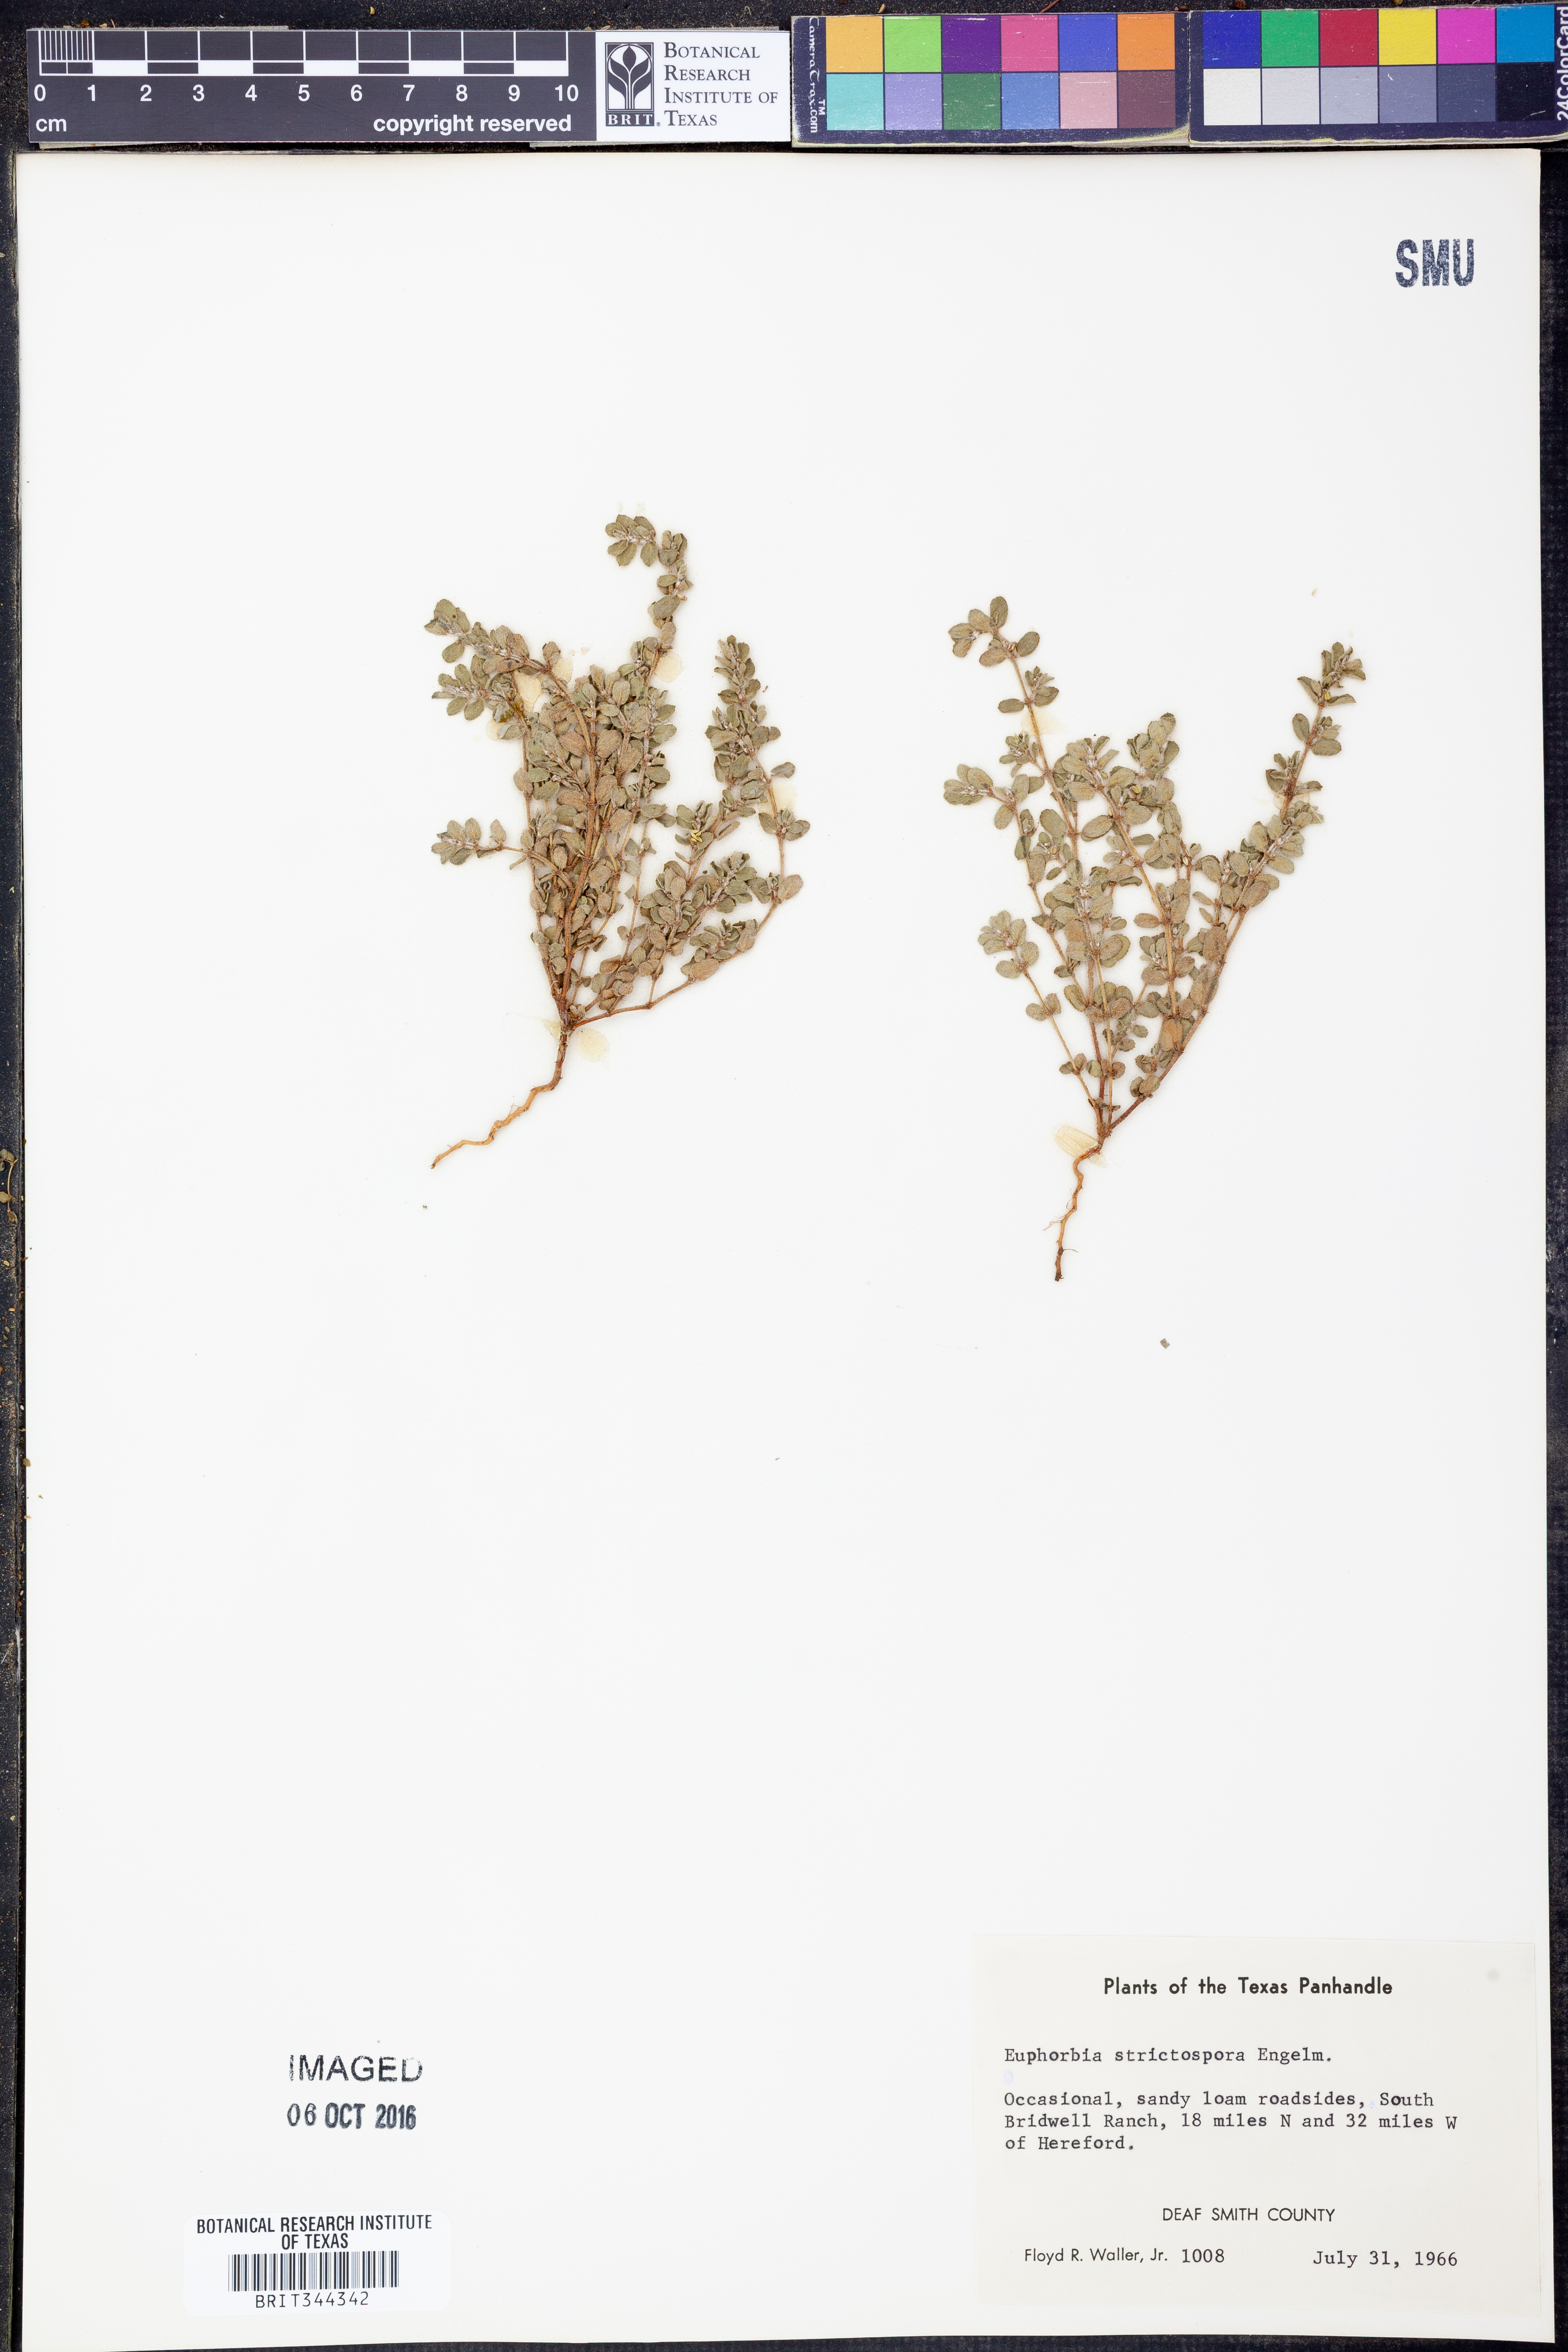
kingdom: Plantae
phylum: Tracheophyta
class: Magnoliopsida
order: Malpighiales
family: Euphorbiaceae
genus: Euphorbia
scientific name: Euphorbia stictospora
